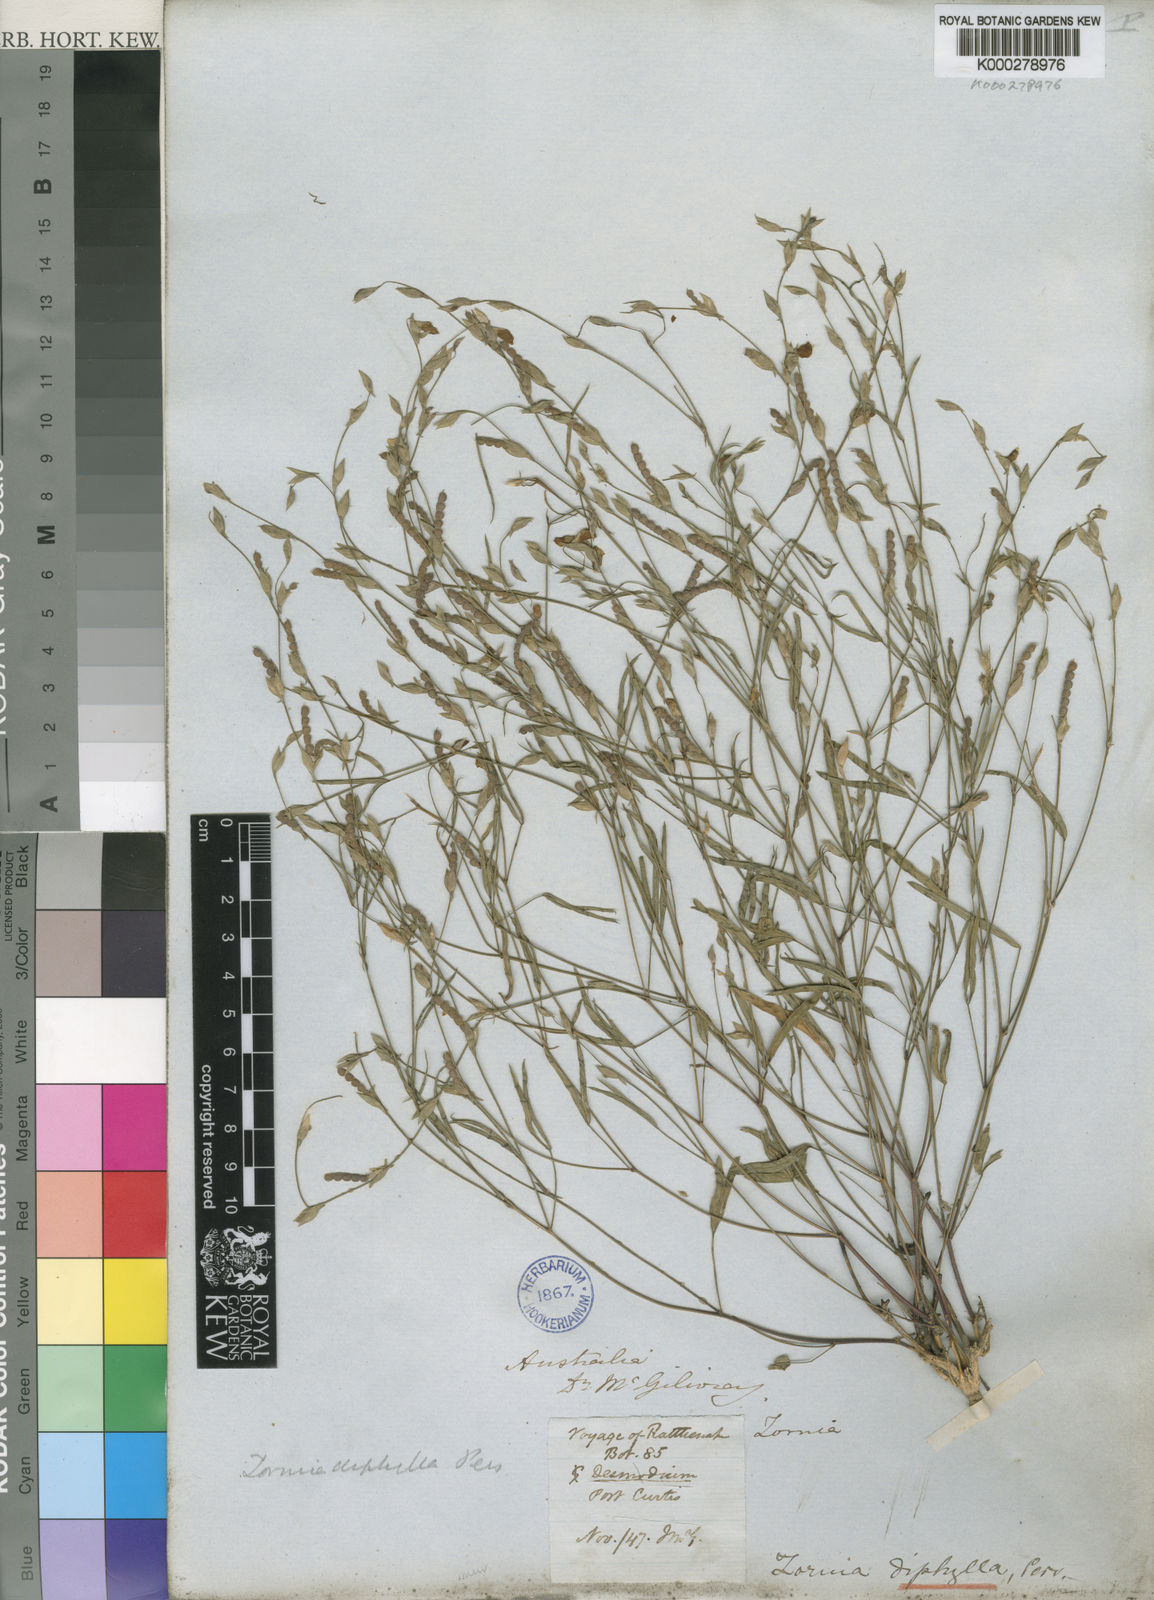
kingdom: Plantae
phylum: Tracheophyta
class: Magnoliopsida
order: Fabales
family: Fabaceae
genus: Zornia
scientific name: Zornia diphylla
